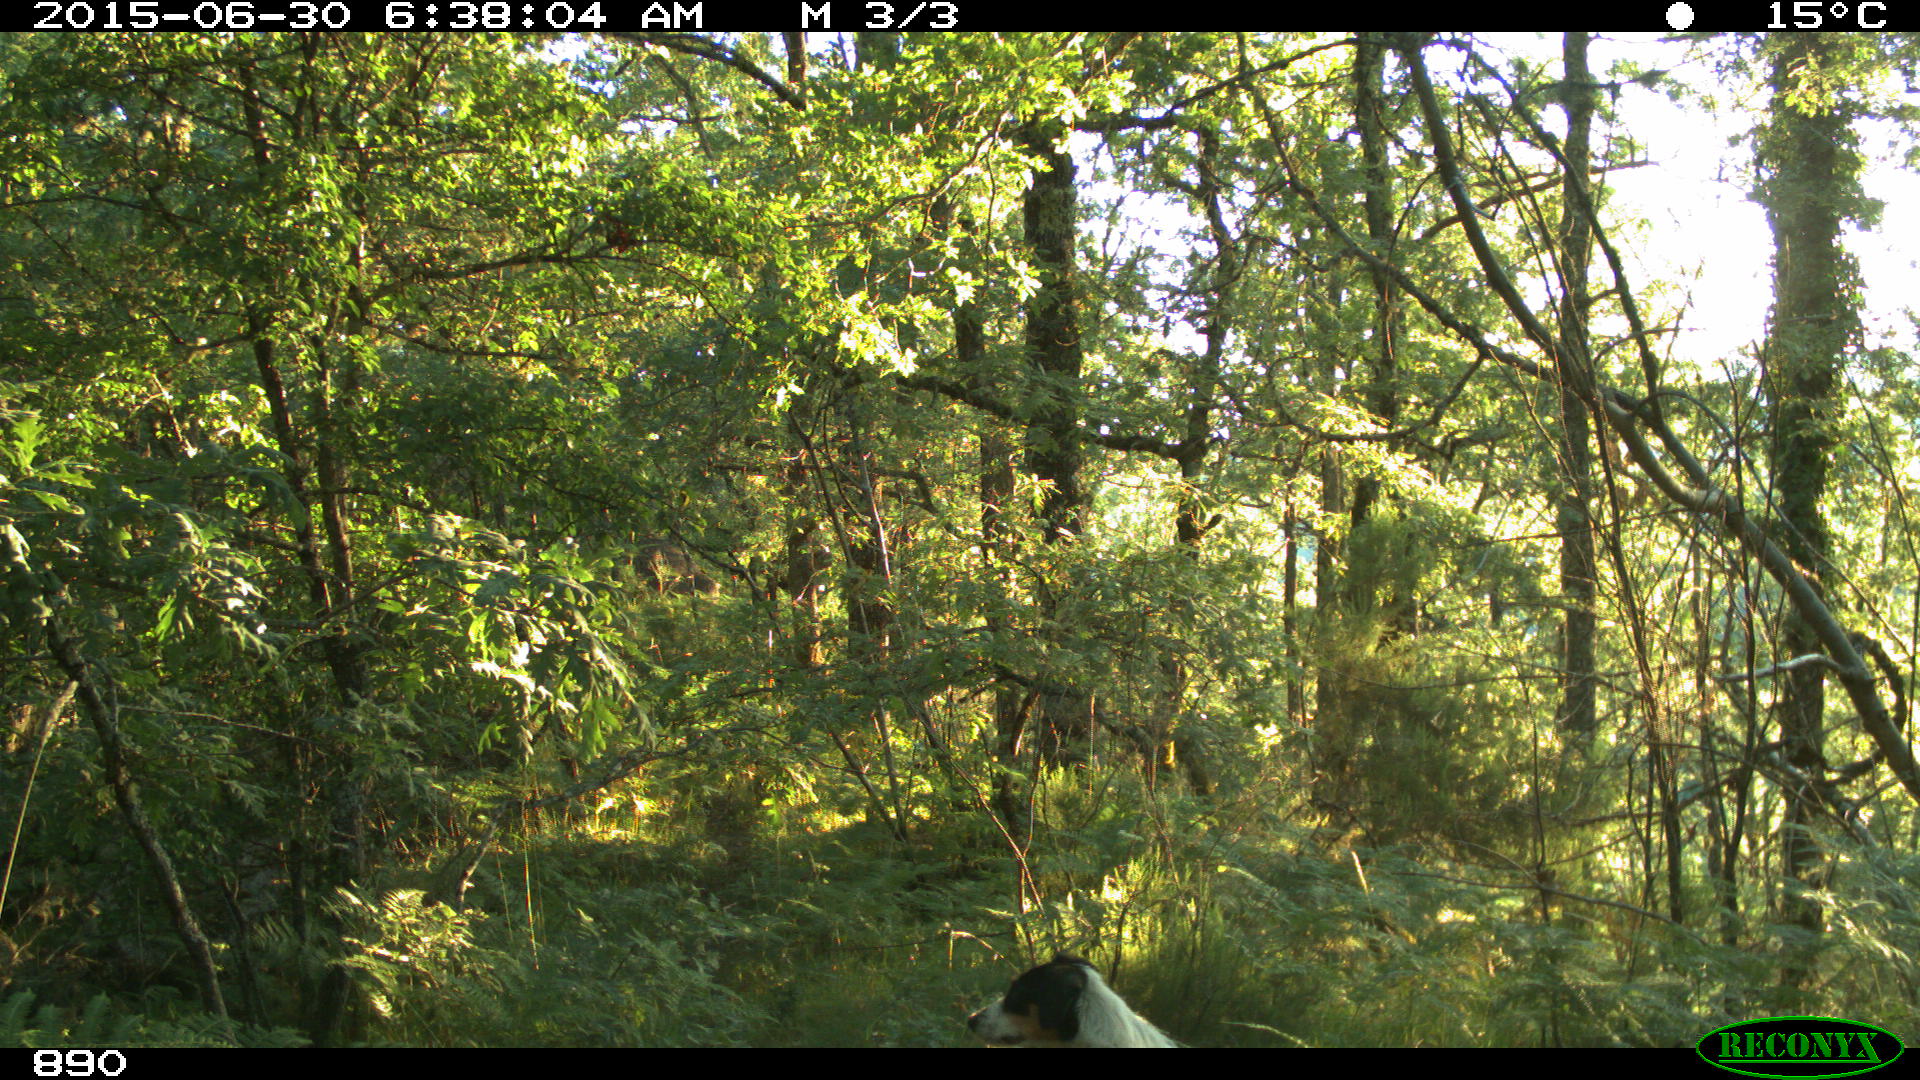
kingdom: Animalia
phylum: Chordata
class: Mammalia
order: Carnivora
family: Canidae
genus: Canis
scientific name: Canis lupus
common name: Gray wolf
